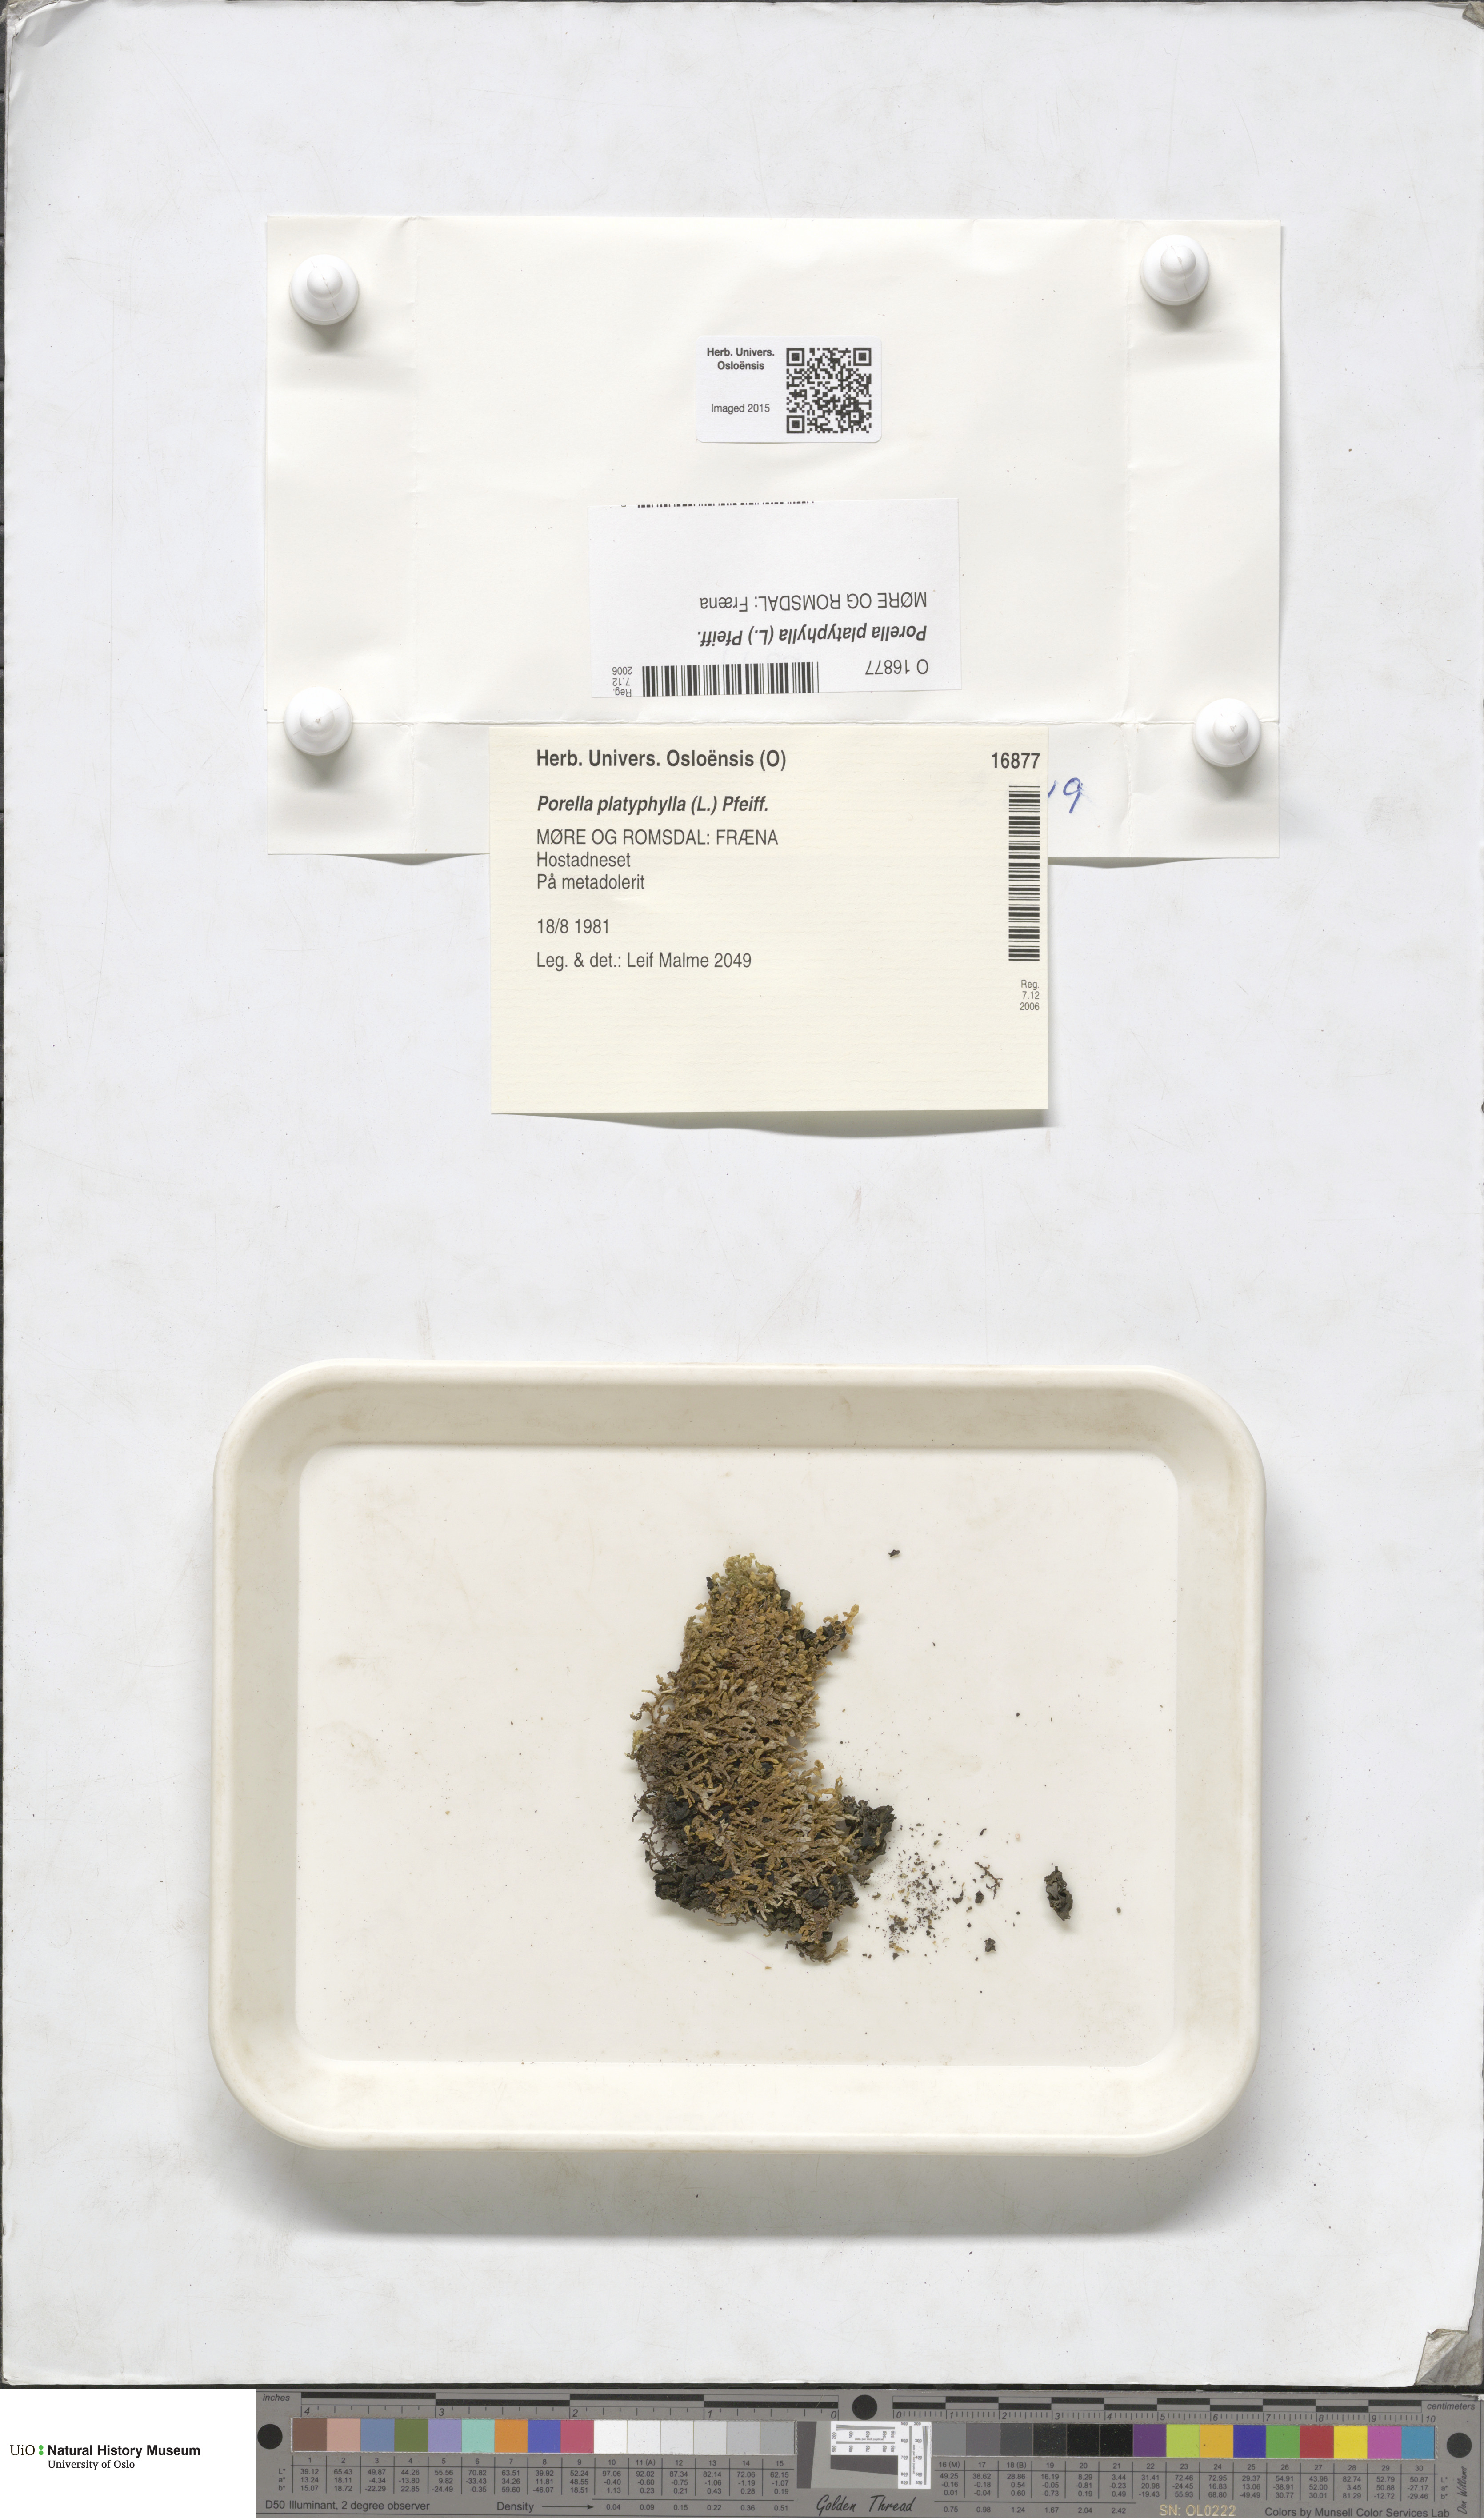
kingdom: Plantae
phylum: Marchantiophyta
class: Jungermanniopsida
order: Porellales
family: Porellaceae
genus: Porella
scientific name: Porella platyphylla
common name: Wall scalewort
